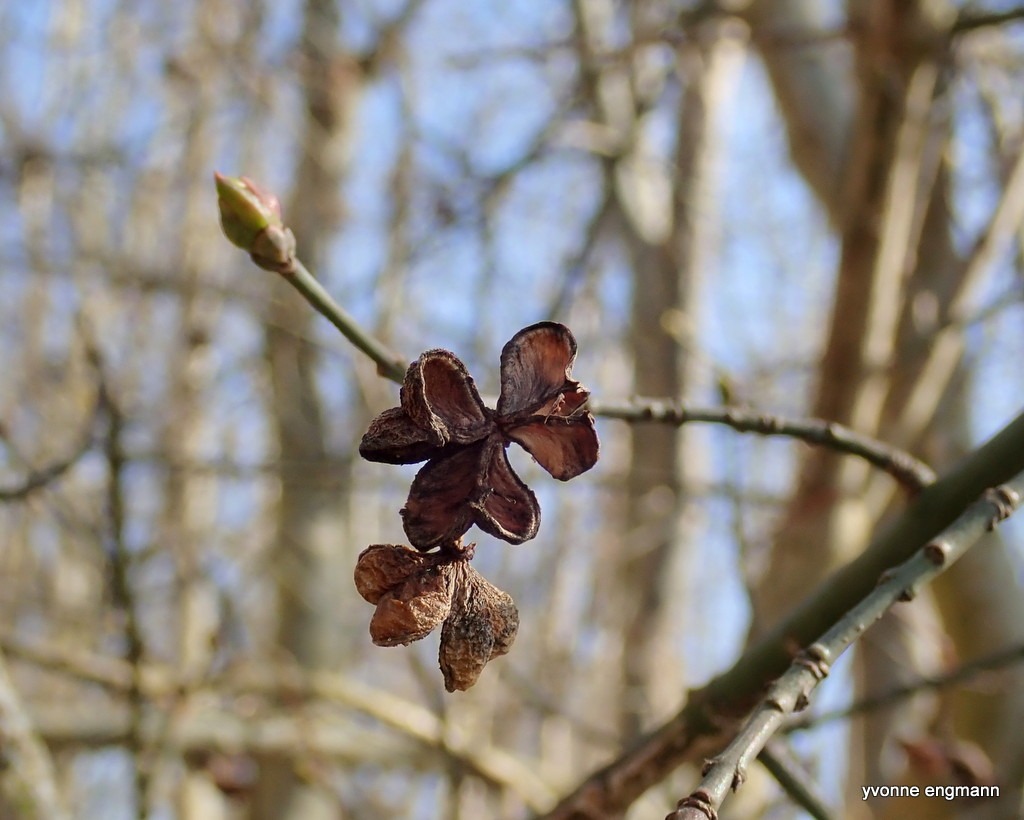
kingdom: Plantae
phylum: Tracheophyta
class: Magnoliopsida
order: Celastrales
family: Celastraceae
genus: Euonymus
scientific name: Euonymus europaeus
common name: Benved
